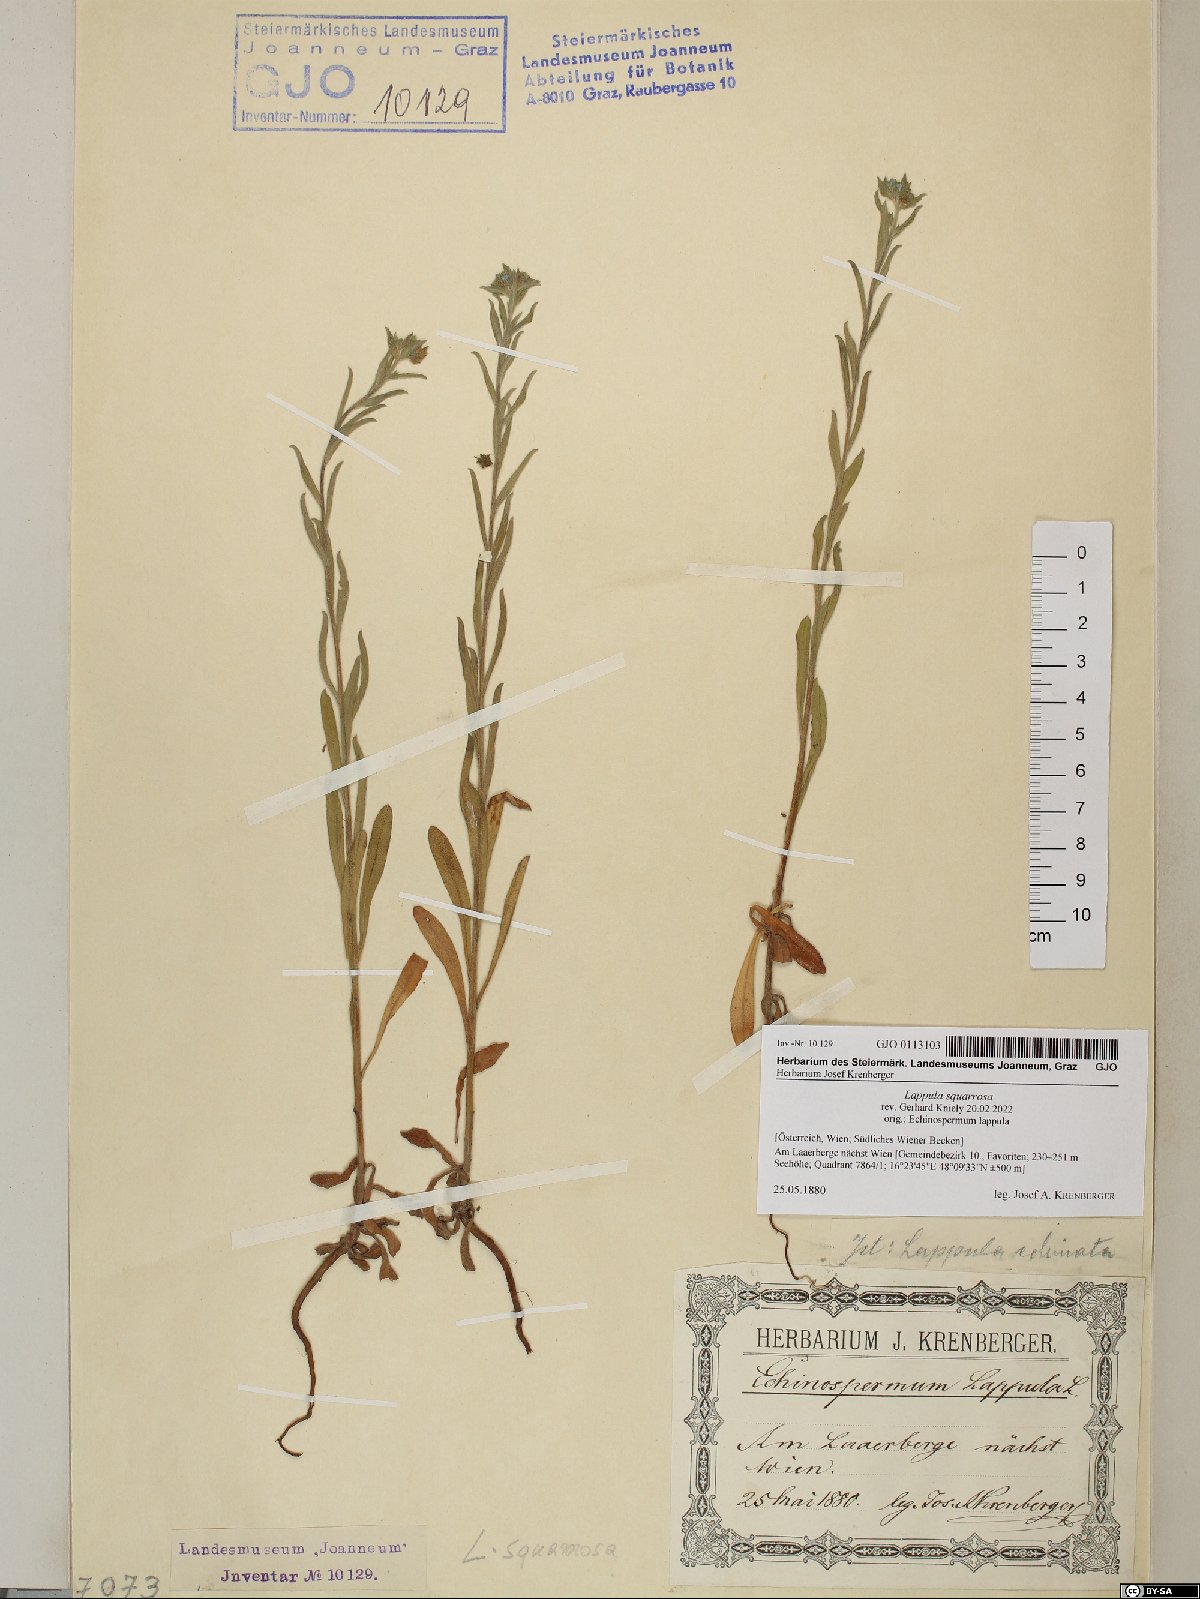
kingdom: Plantae
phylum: Tracheophyta
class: Magnoliopsida
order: Boraginales
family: Boraginaceae
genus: Lappula
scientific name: Lappula squarrosa
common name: European stickseed
